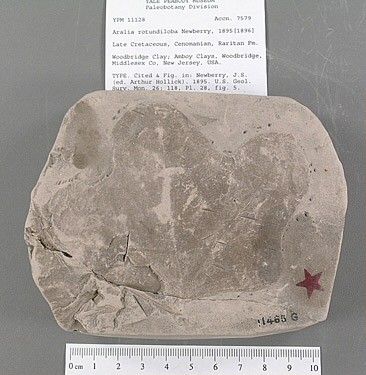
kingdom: Plantae
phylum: Tracheophyta
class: Magnoliopsida
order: Apiales
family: Araliaceae
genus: Aralia
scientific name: Aralia rotundiloba
